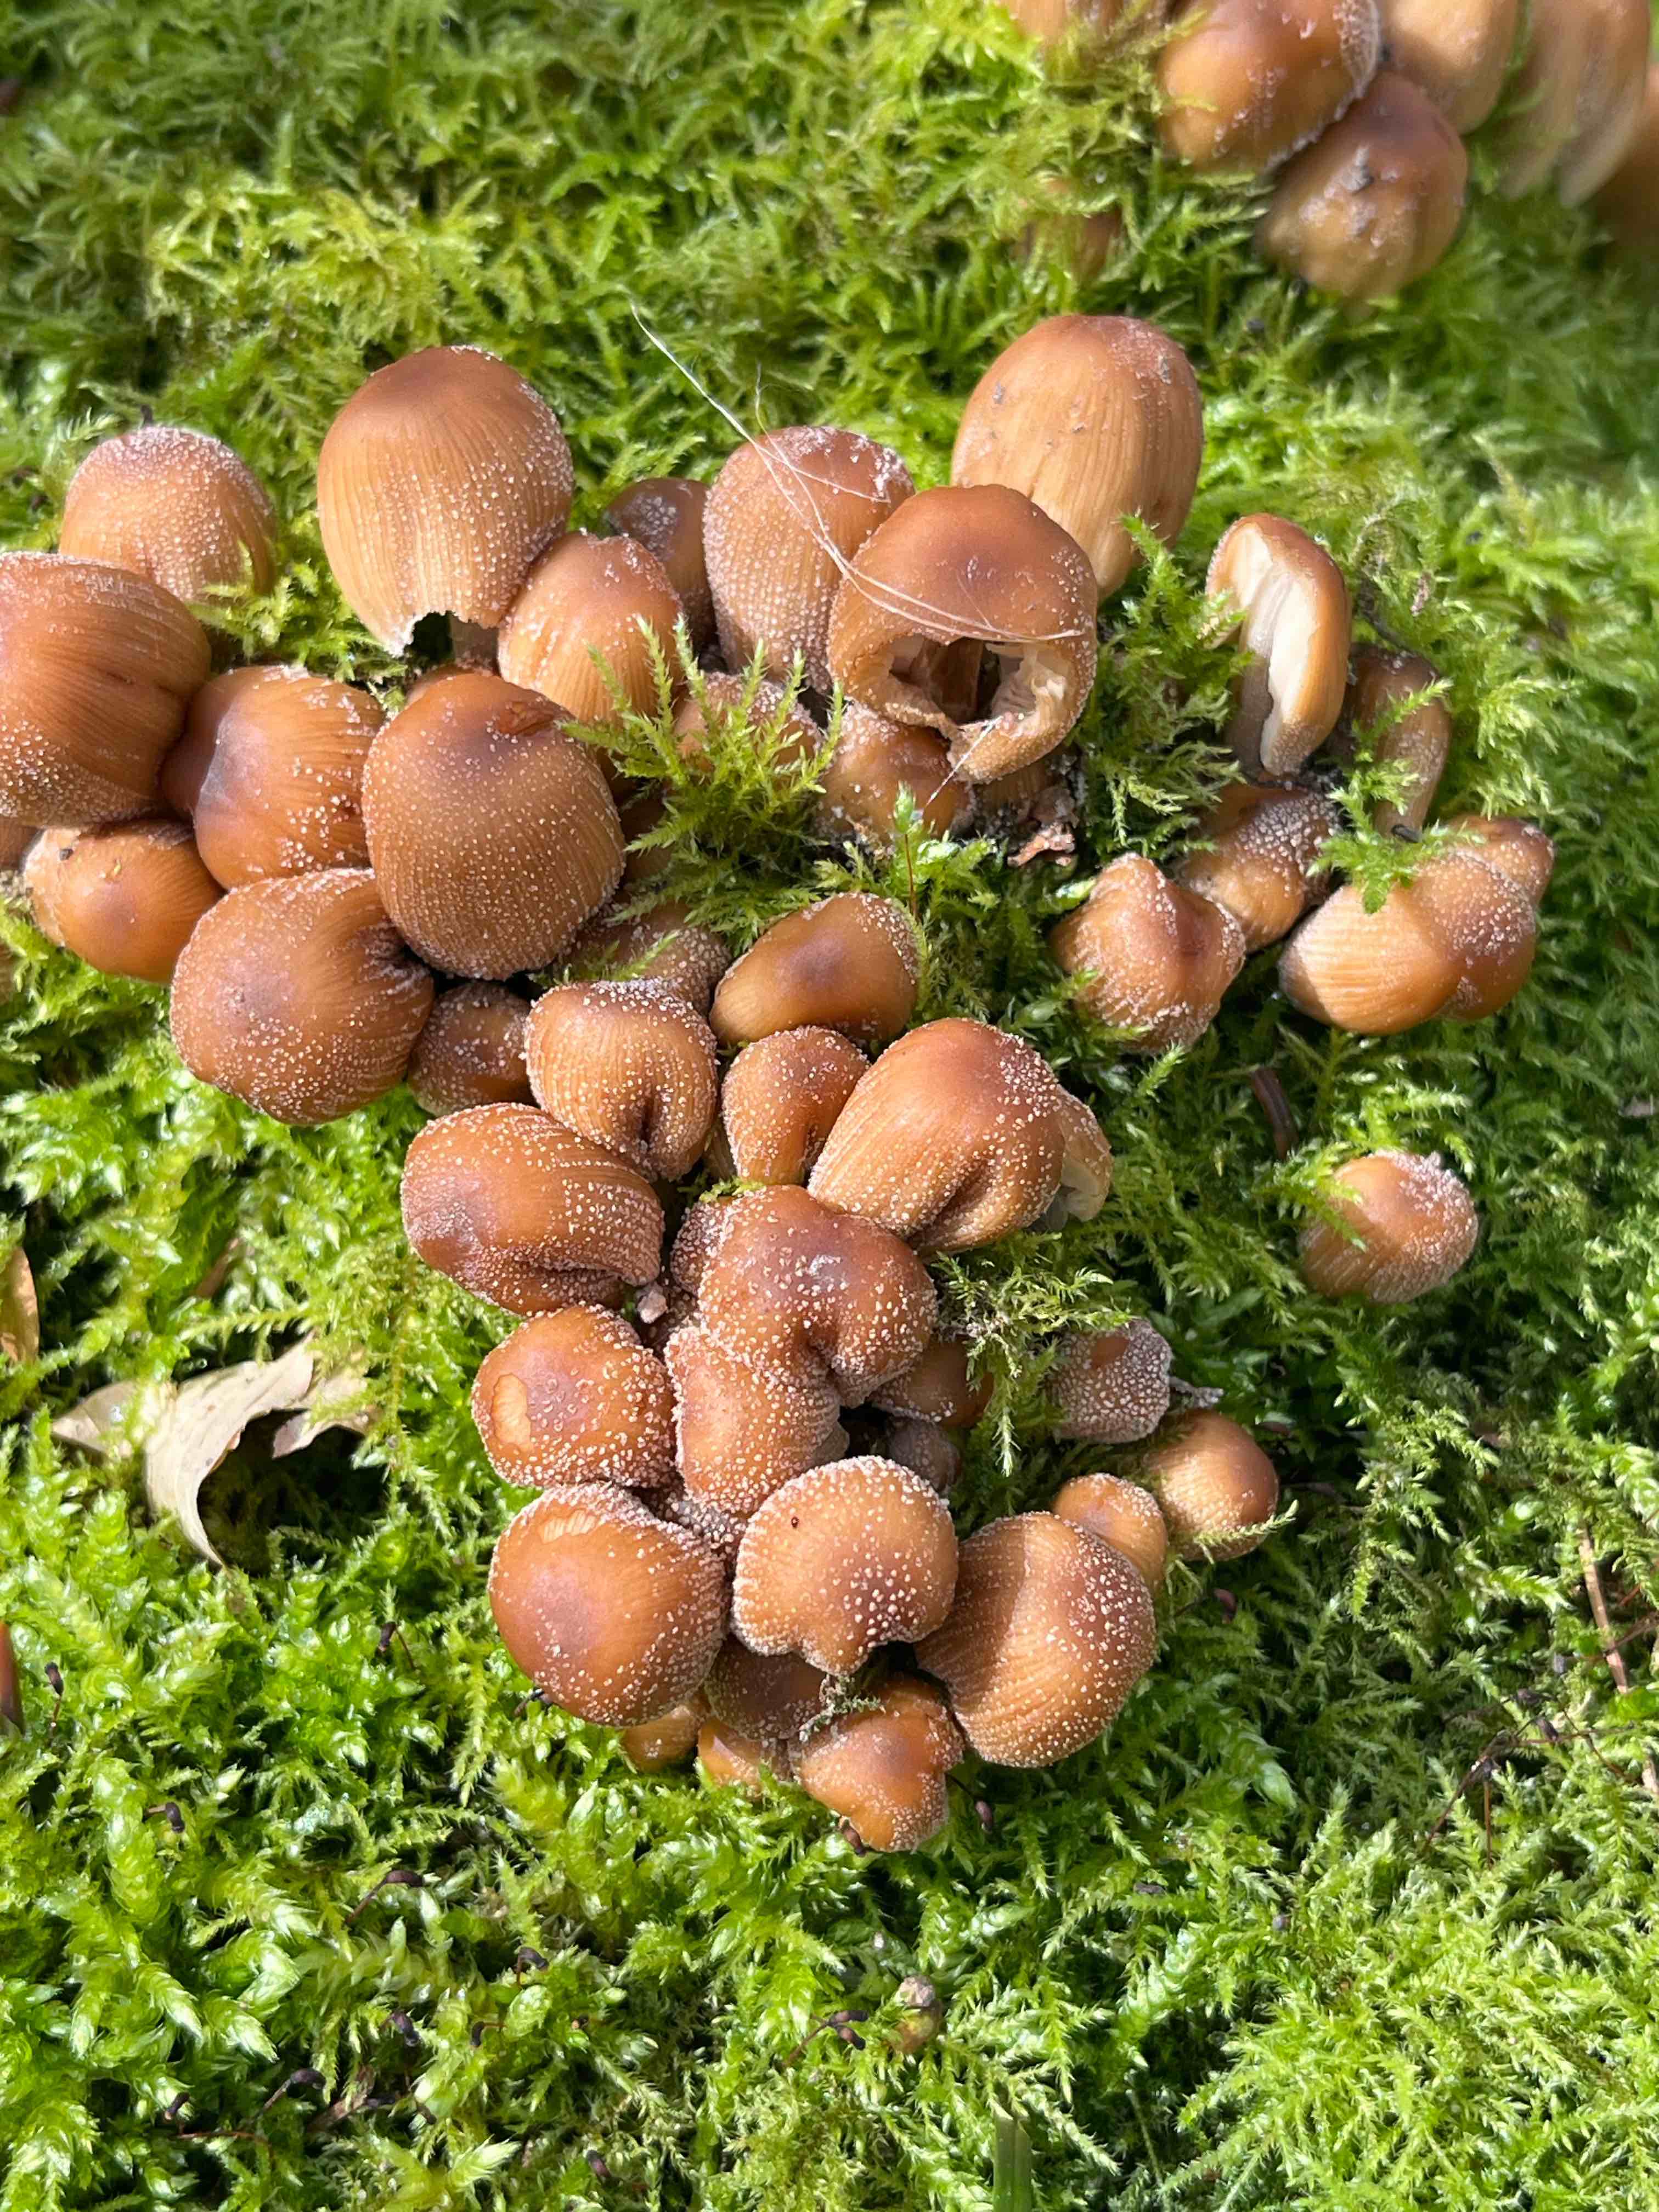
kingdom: Fungi
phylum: Basidiomycota
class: Agaricomycetes
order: Agaricales
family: Psathyrellaceae
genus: Coprinellus
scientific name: Coprinellus micaceus
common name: glimmer-blækhat
